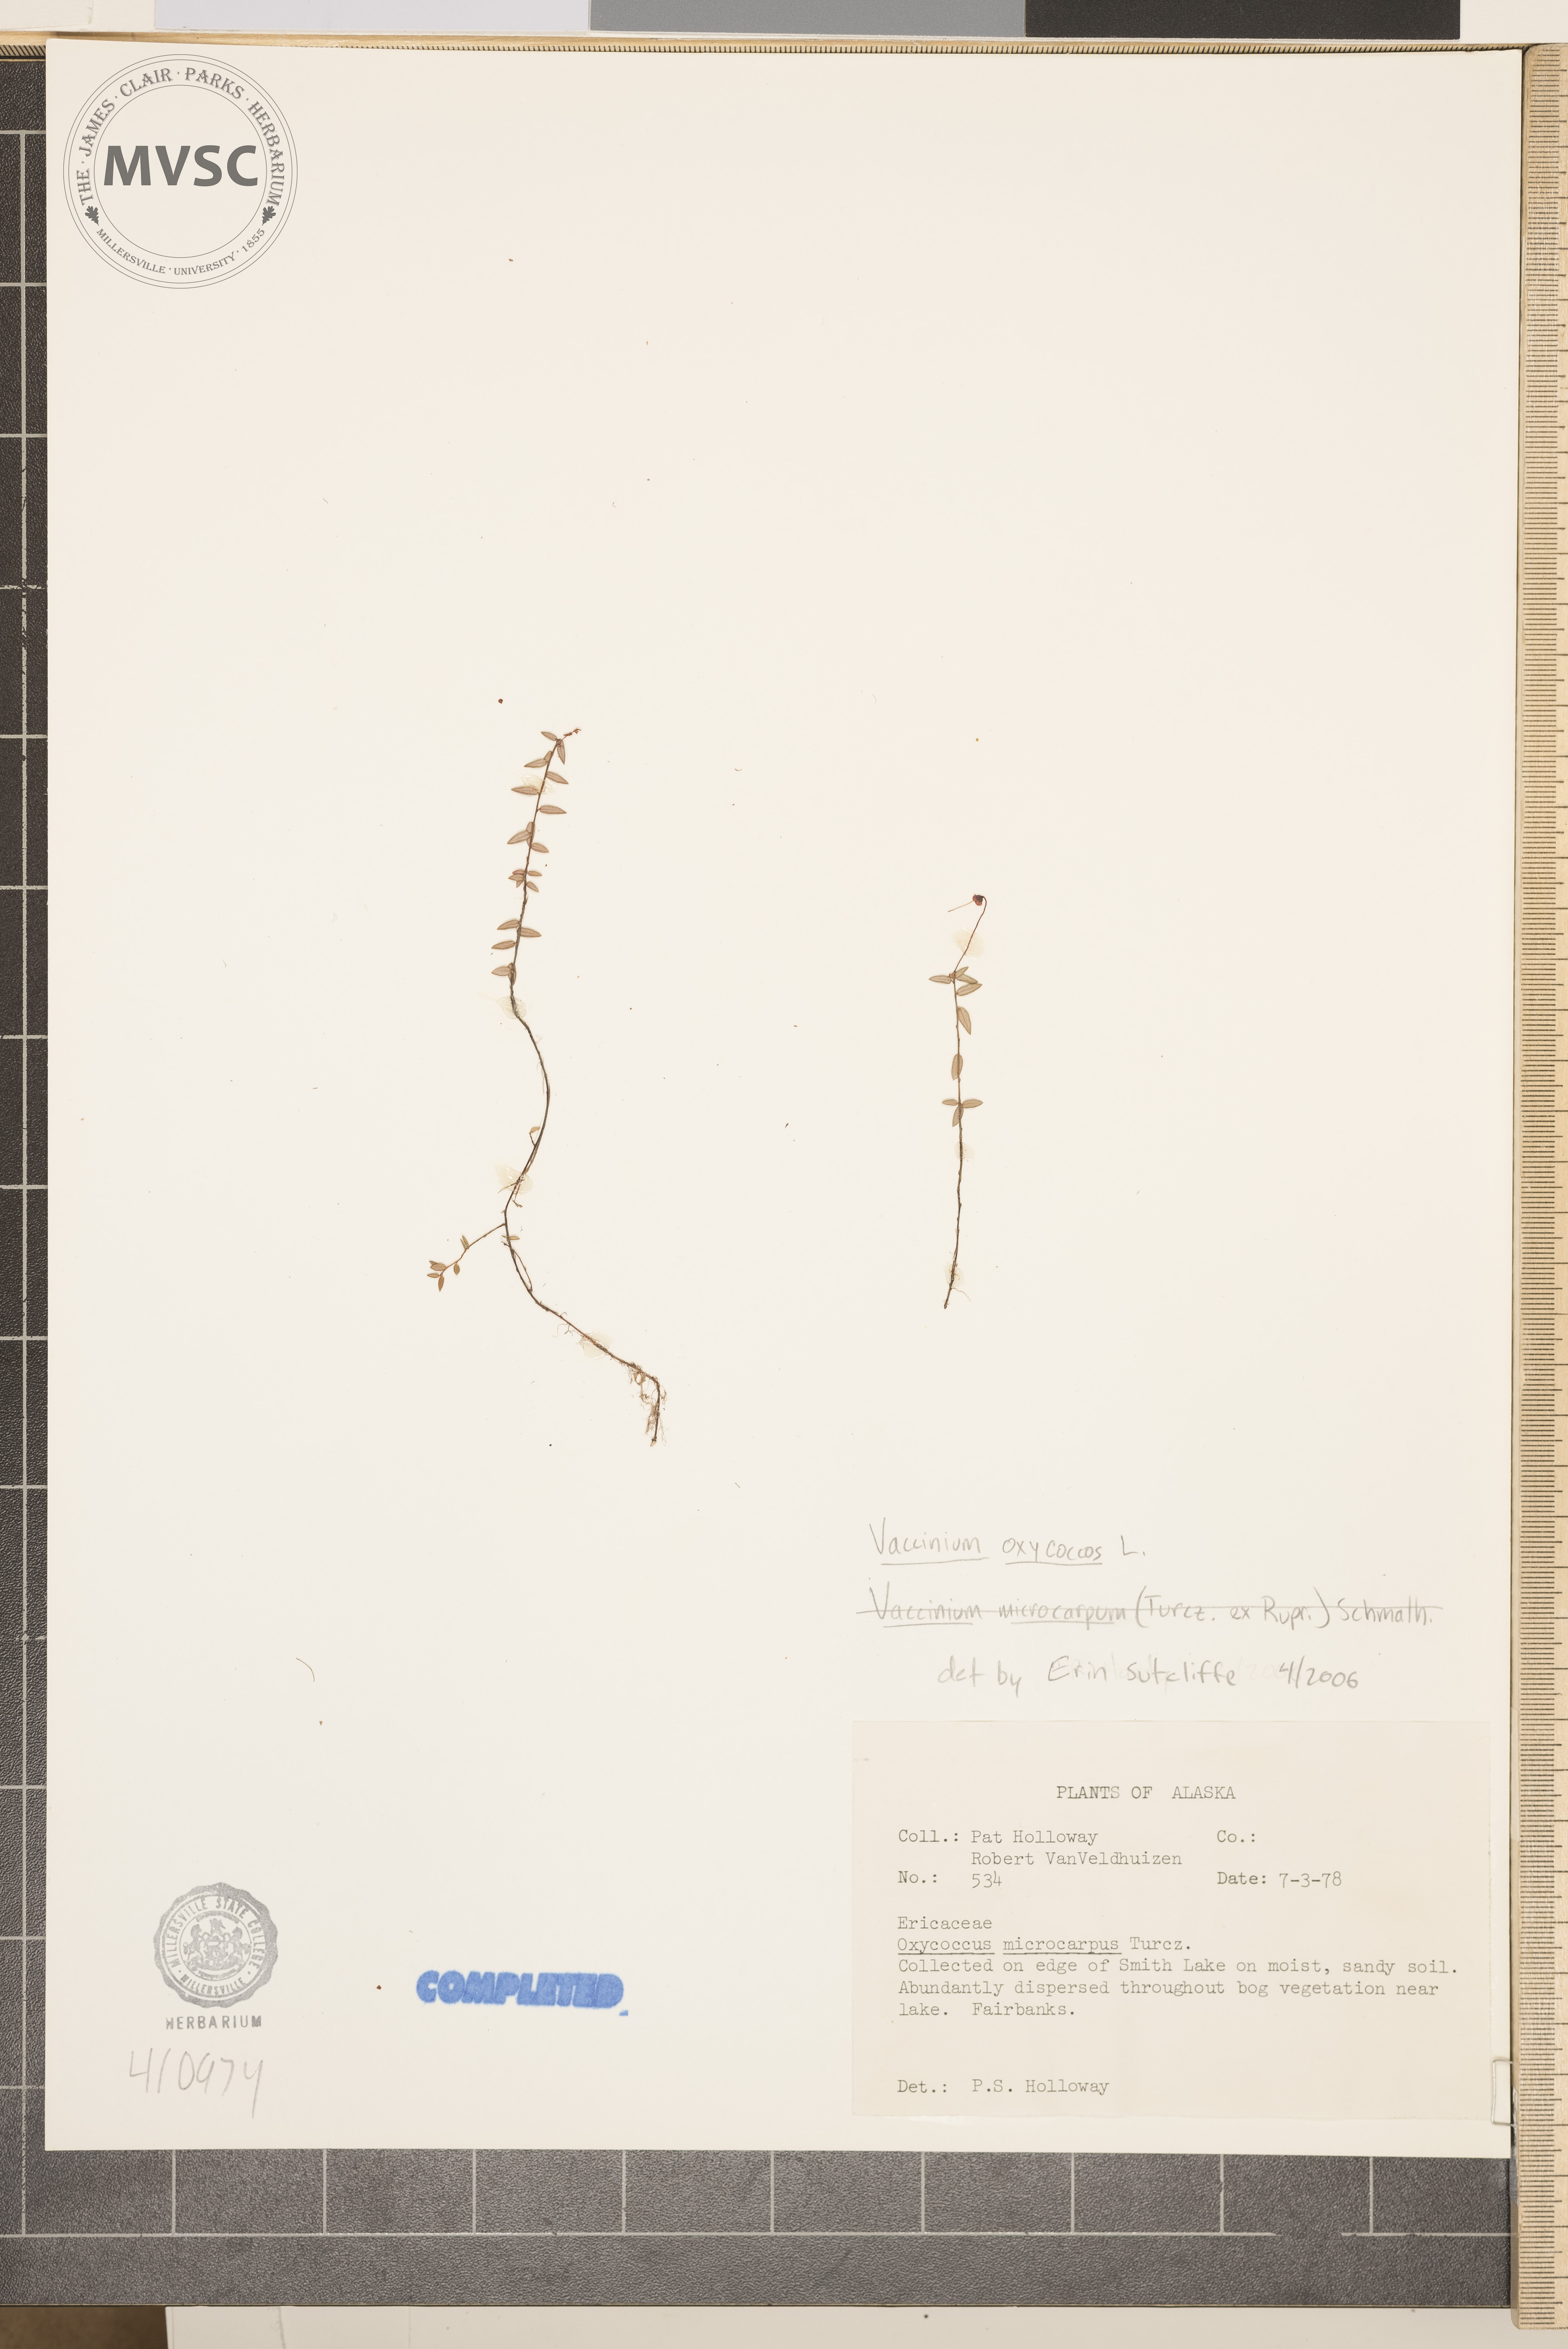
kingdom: Plantae
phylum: Tracheophyta
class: Magnoliopsida
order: Ericales
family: Ericaceae
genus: Vaccinium
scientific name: Vaccinium oxycoccos
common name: Cranberry
